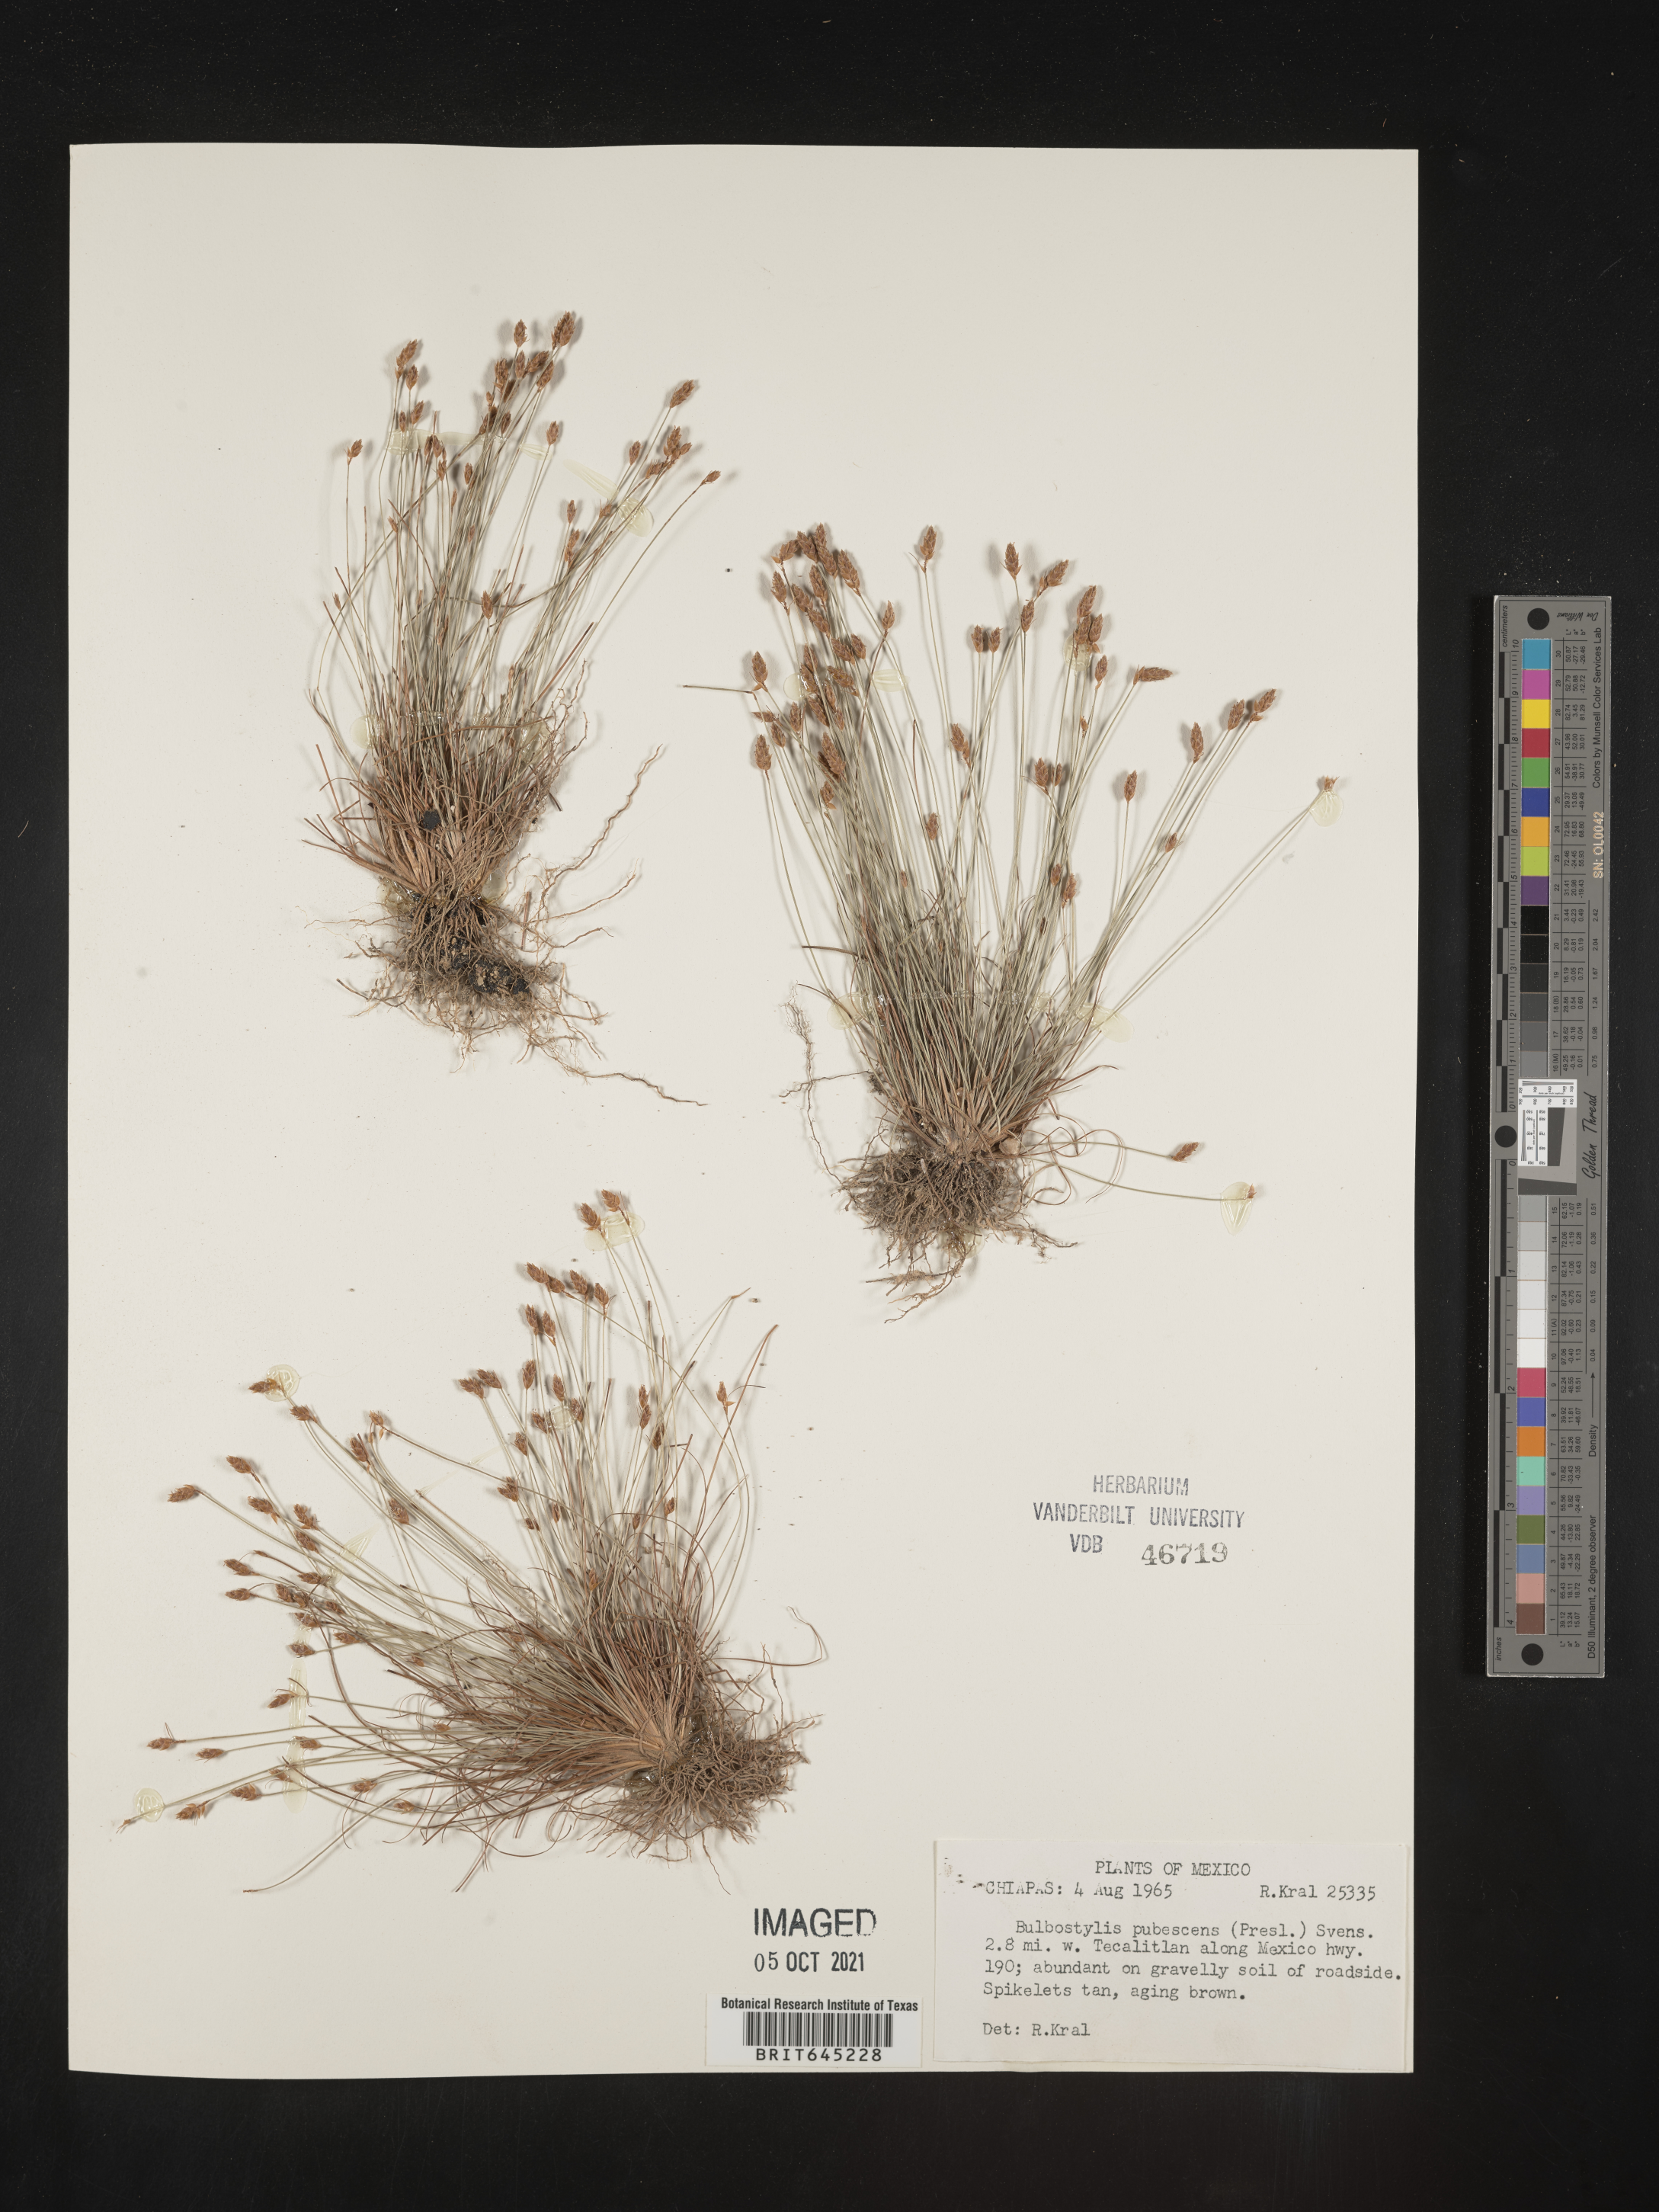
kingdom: Plantae
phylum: Tracheophyta
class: Liliopsida
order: Poales
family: Cyperaceae
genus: Bulbostylis
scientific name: Bulbostylis pubescens
